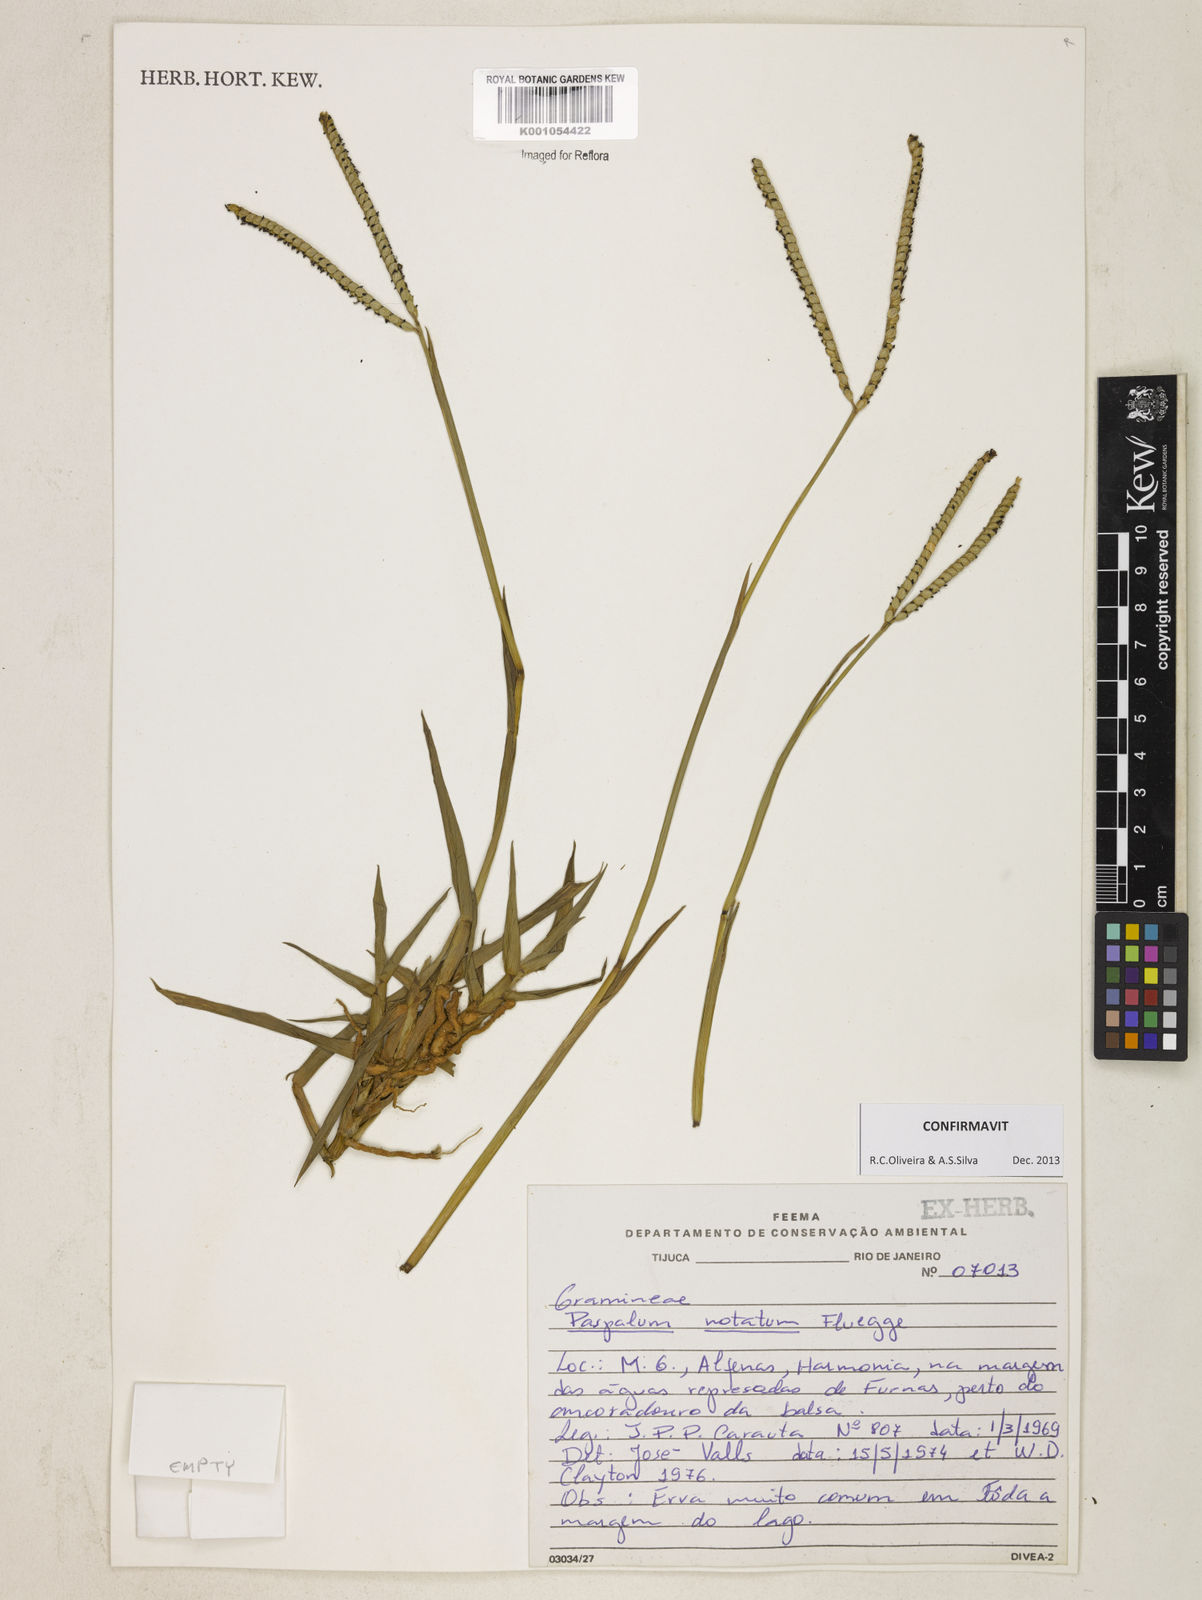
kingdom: Plantae
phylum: Tracheophyta
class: Liliopsida
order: Poales
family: Poaceae
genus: Paspalum
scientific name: Paspalum
